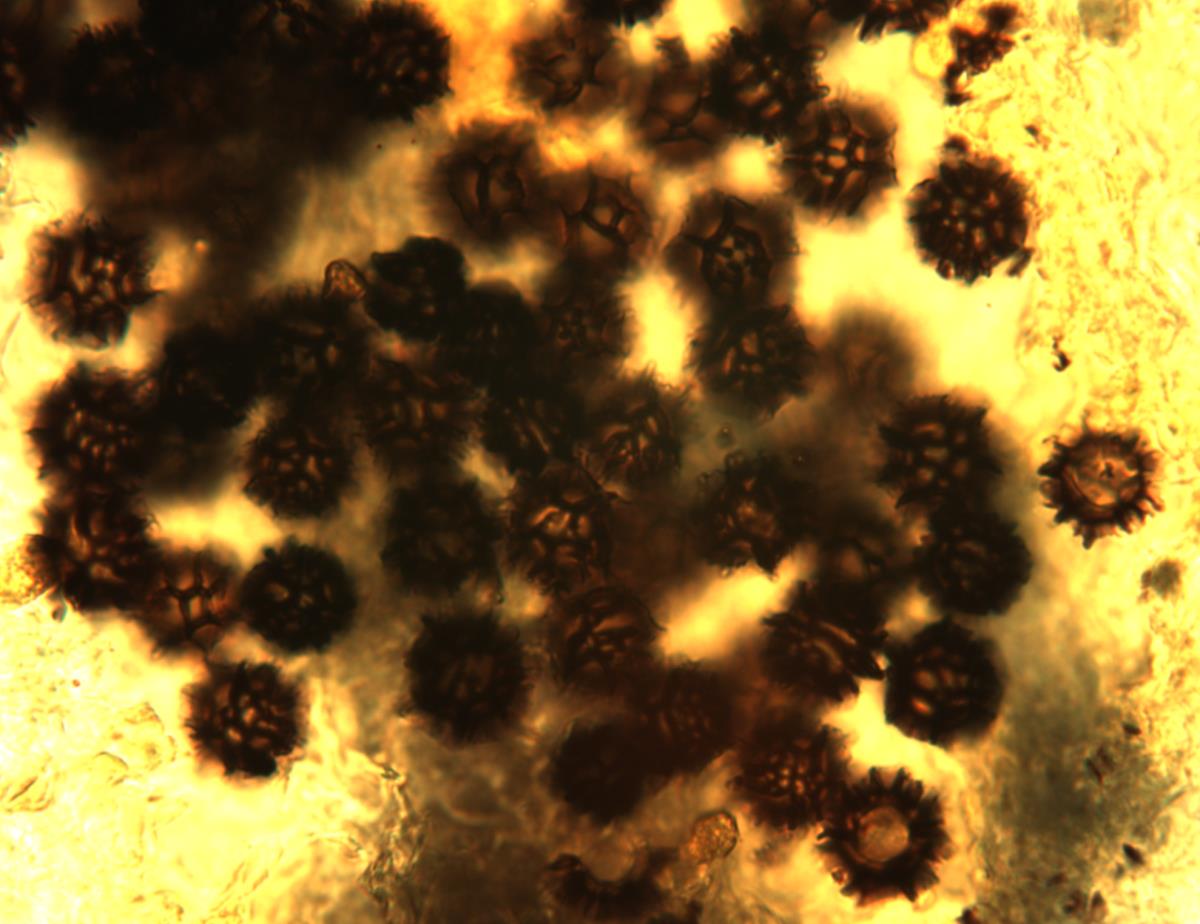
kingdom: Fungi
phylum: Basidiomycota
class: Agaricomycetes
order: Russulales
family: Russulaceae
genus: Russula
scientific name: Russula korystospora
